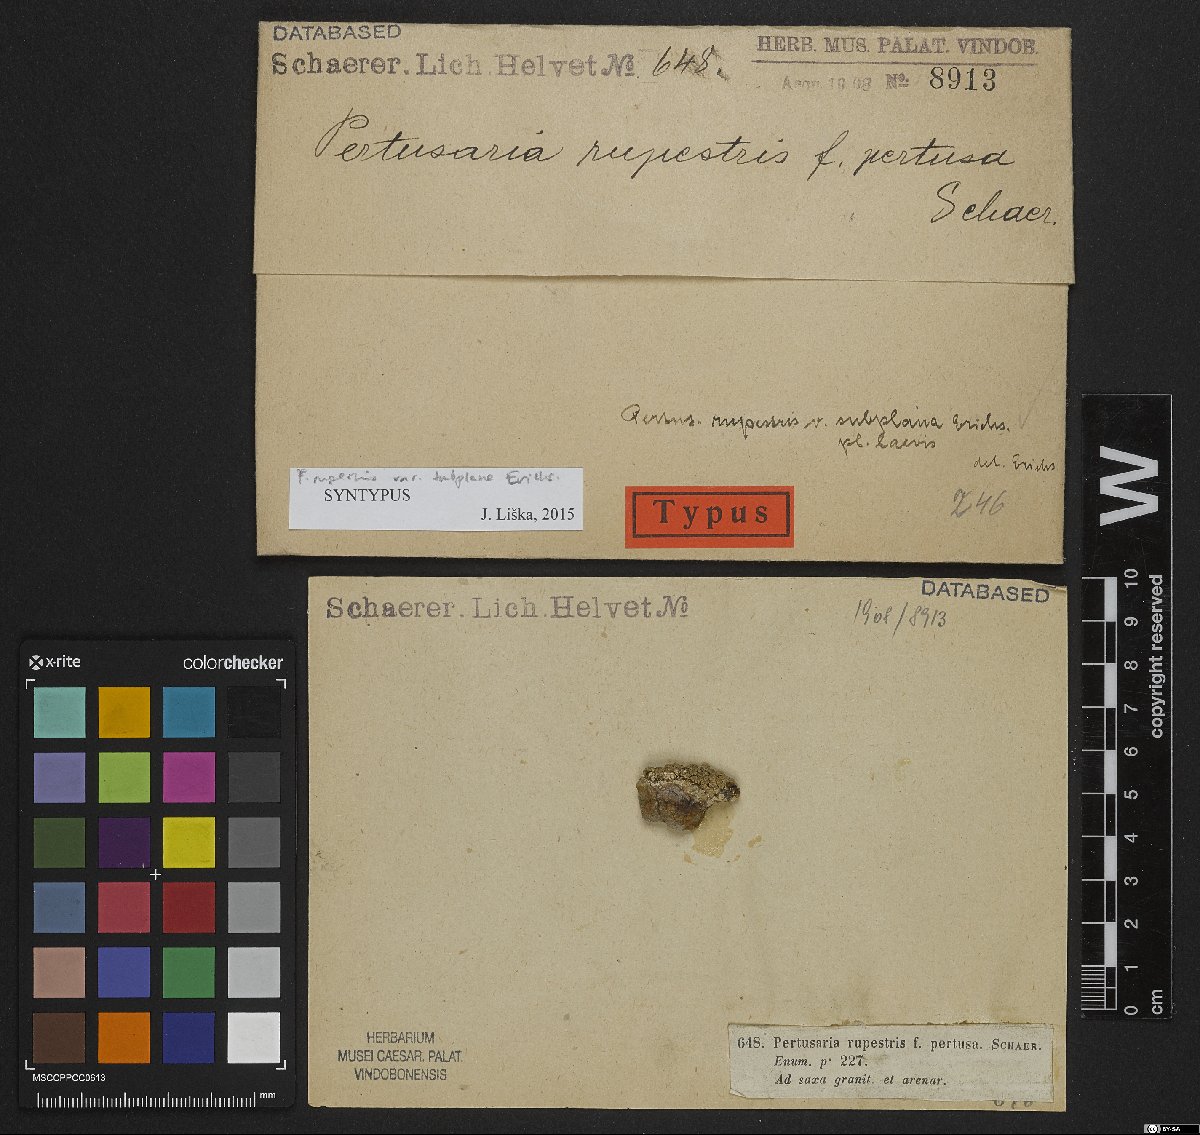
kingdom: Fungi
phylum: Ascomycota
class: Lecanoromycetes
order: Pertusariales
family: Pertusariaceae
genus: Pertusaria
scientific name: Pertusaria pertusa
